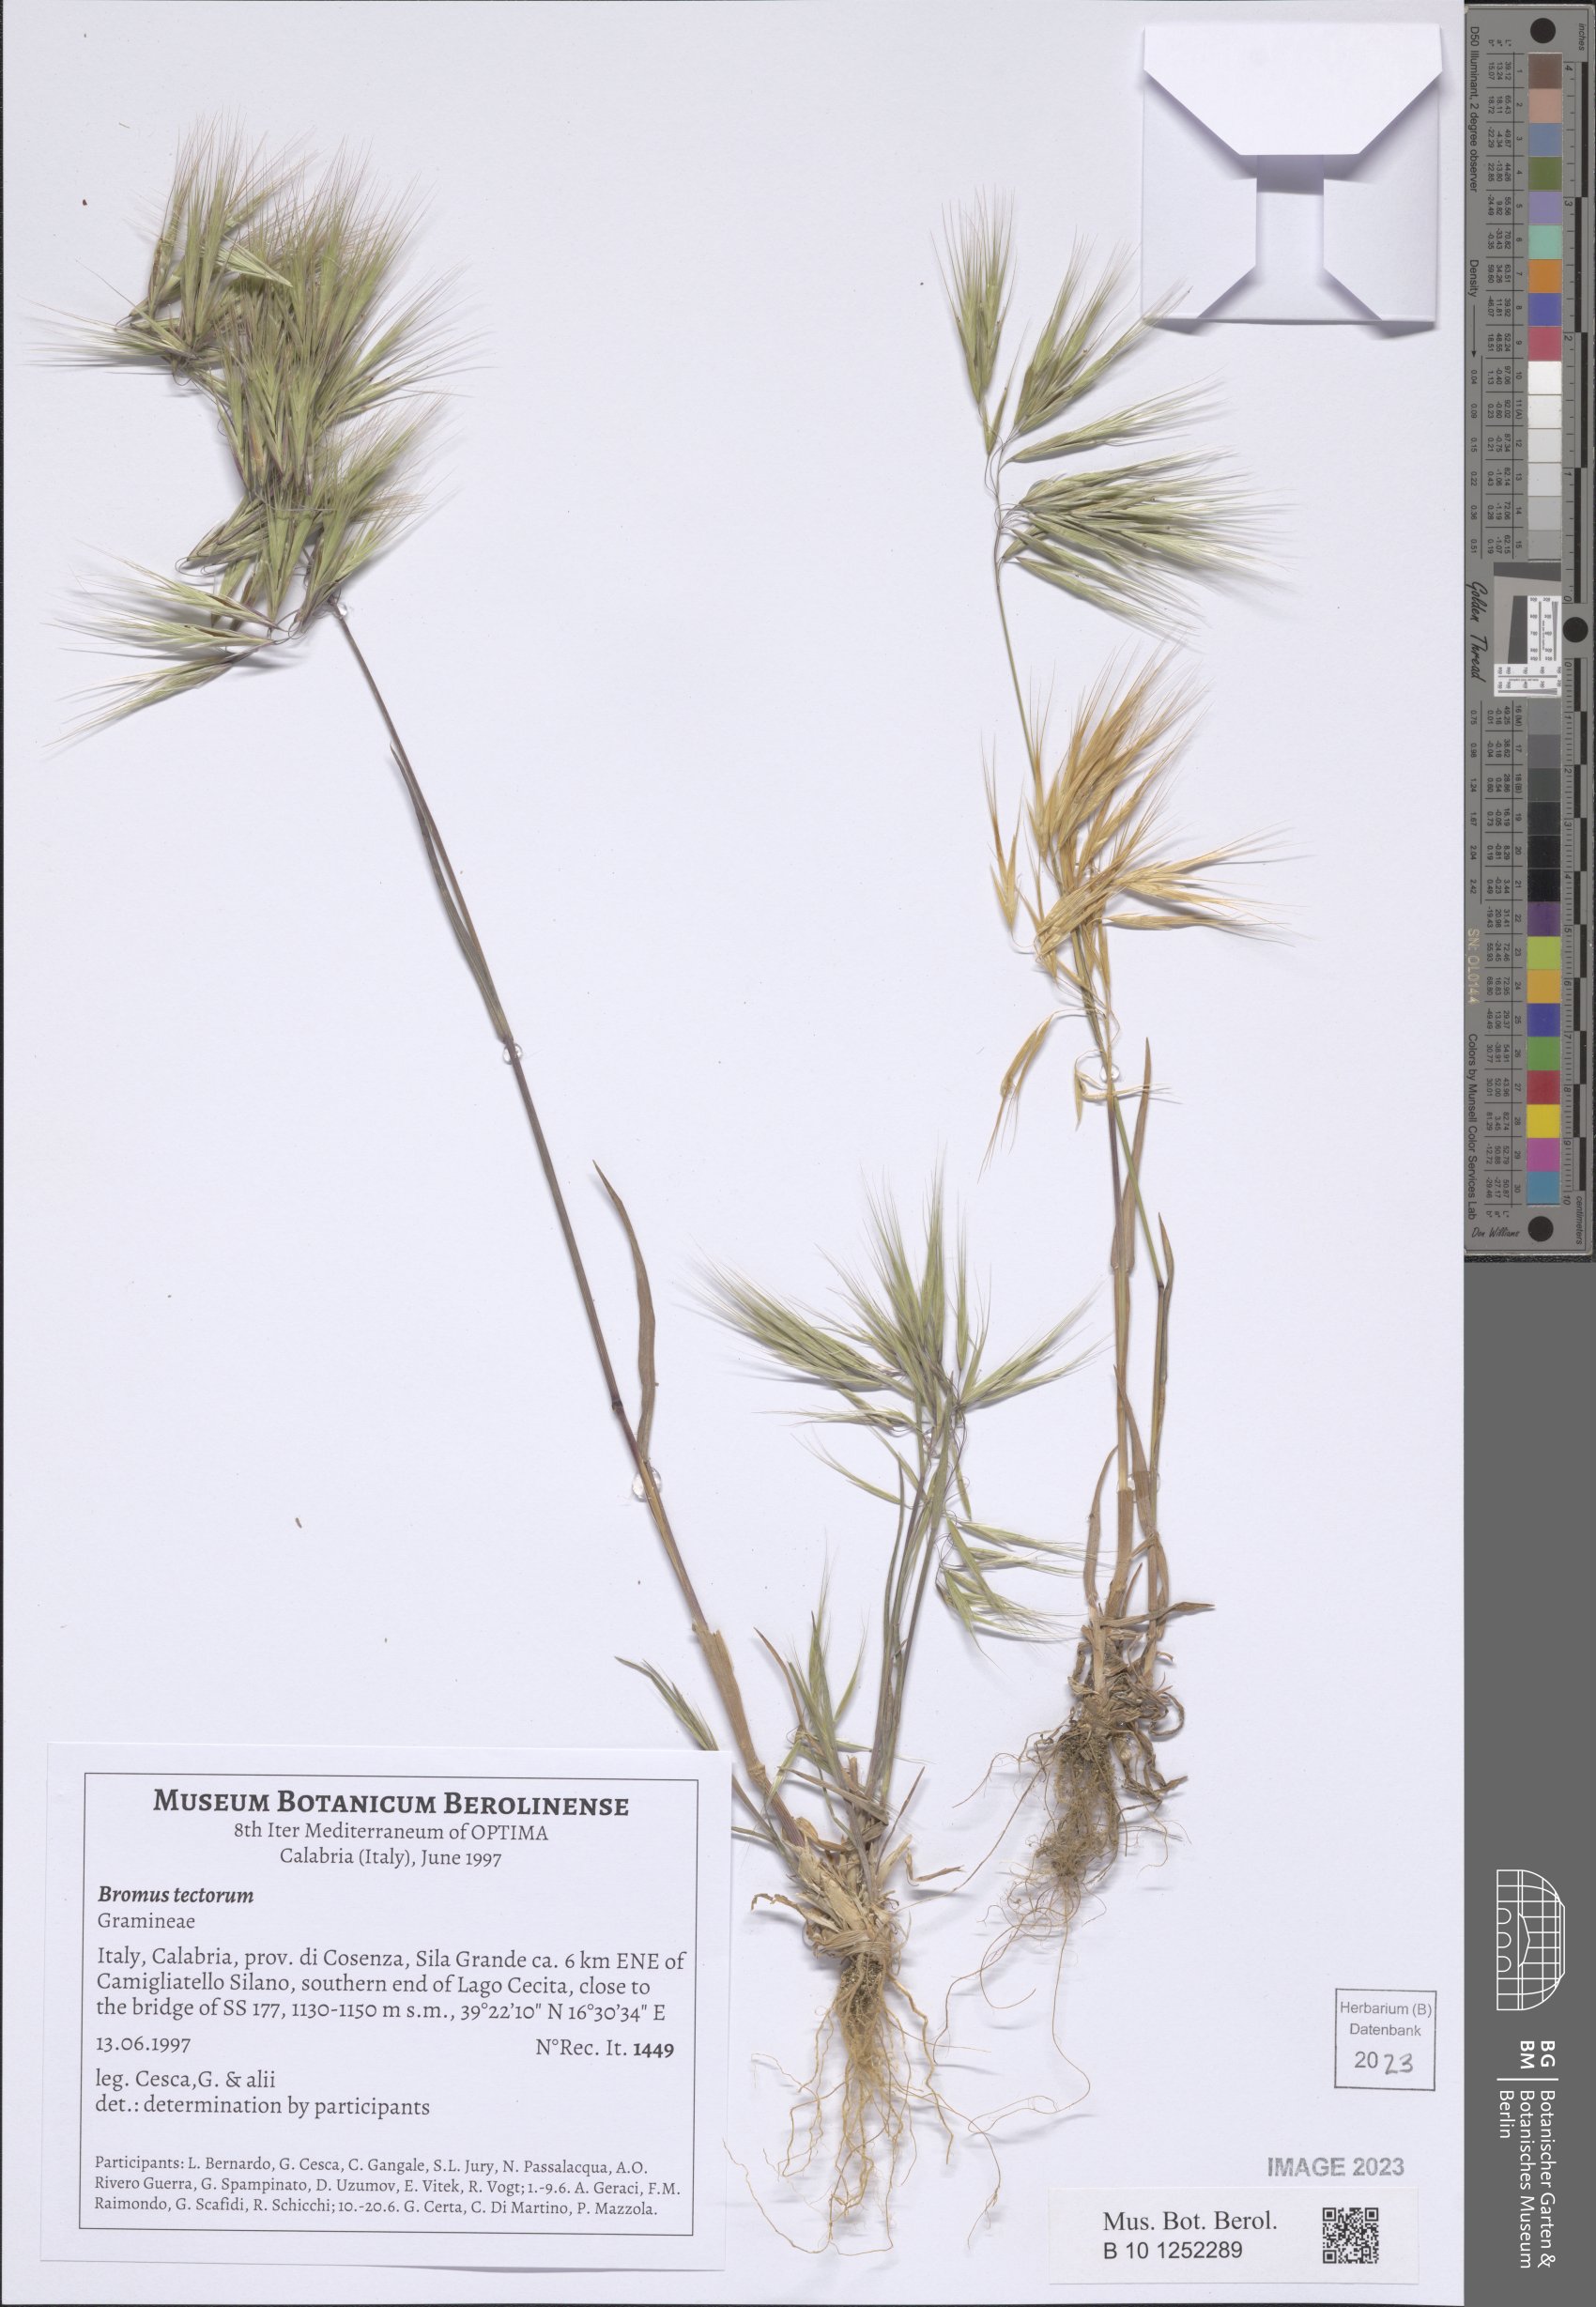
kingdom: Plantae
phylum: Tracheophyta
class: Liliopsida
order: Poales
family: Poaceae
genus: Bromus
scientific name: Bromus tectorum
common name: Cheatgrass
